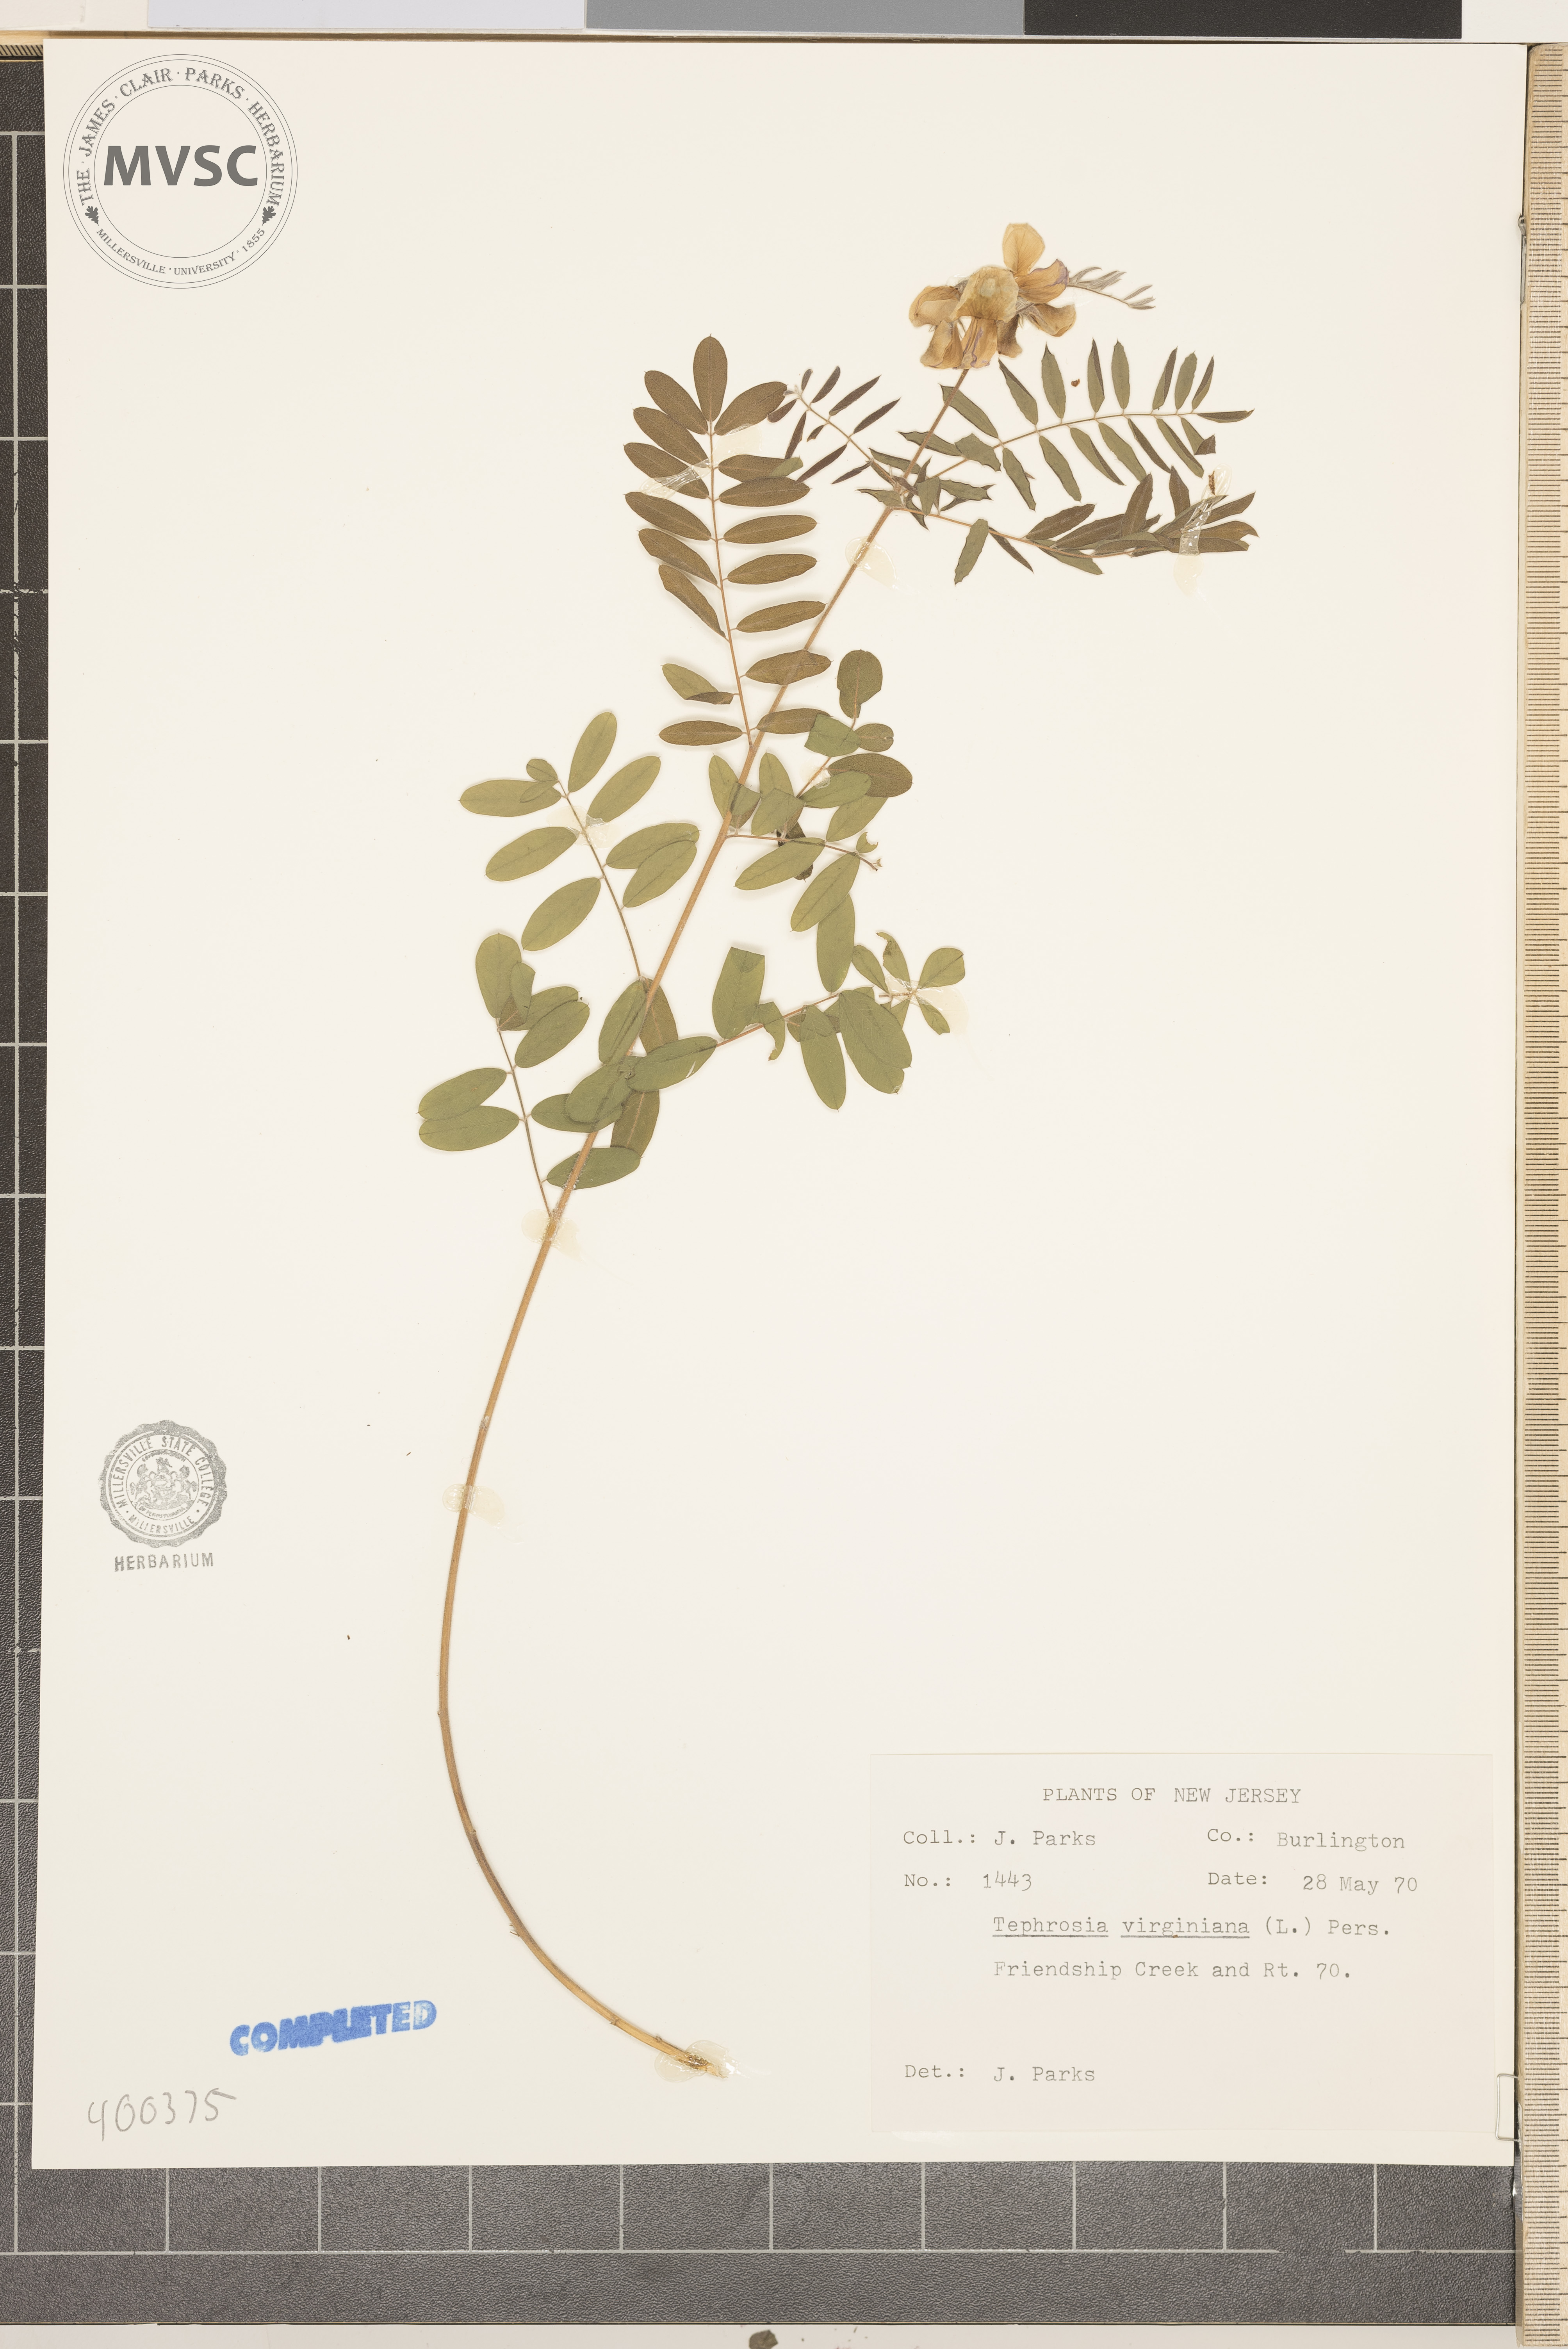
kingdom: Plantae
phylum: Tracheophyta
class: Magnoliopsida
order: Fabales
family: Fabaceae
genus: Tephrosia
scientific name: Tephrosia virginiana
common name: Rabbit-pea
